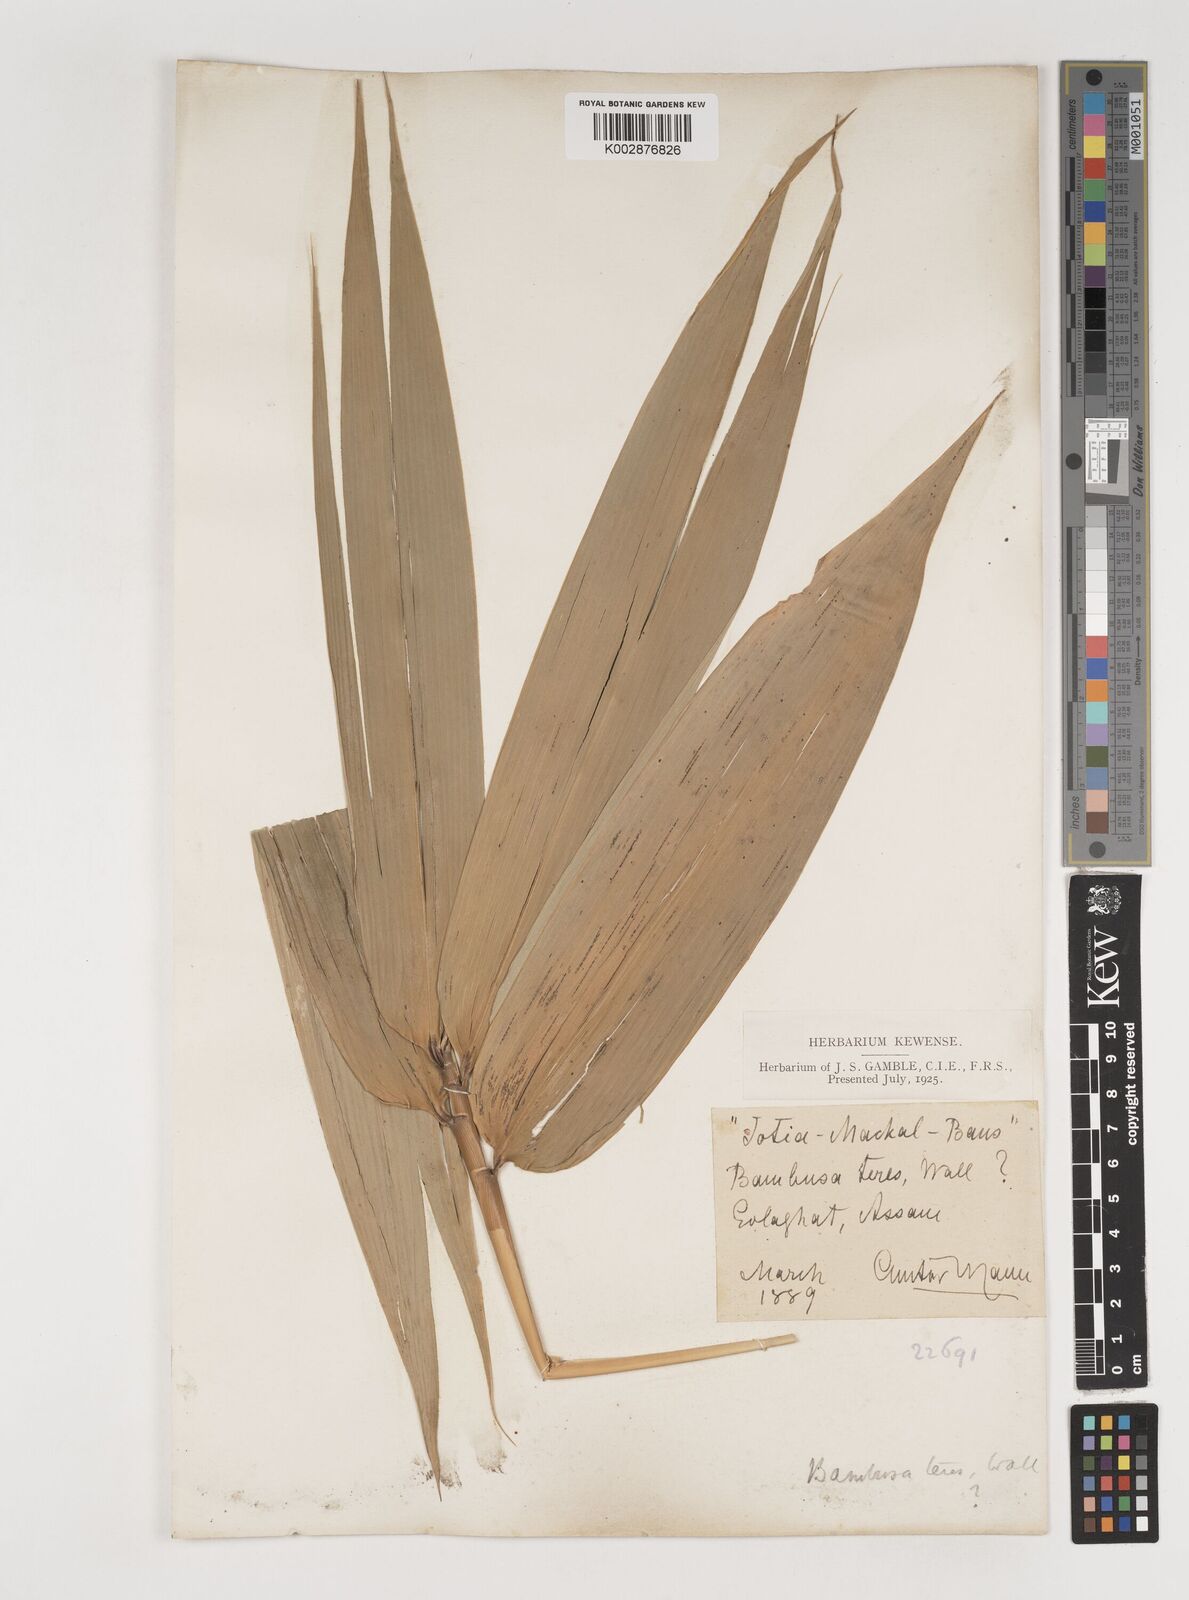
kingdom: Plantae
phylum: Tracheophyta
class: Liliopsida
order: Poales
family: Poaceae
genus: Bambusa
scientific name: Bambusa teres
